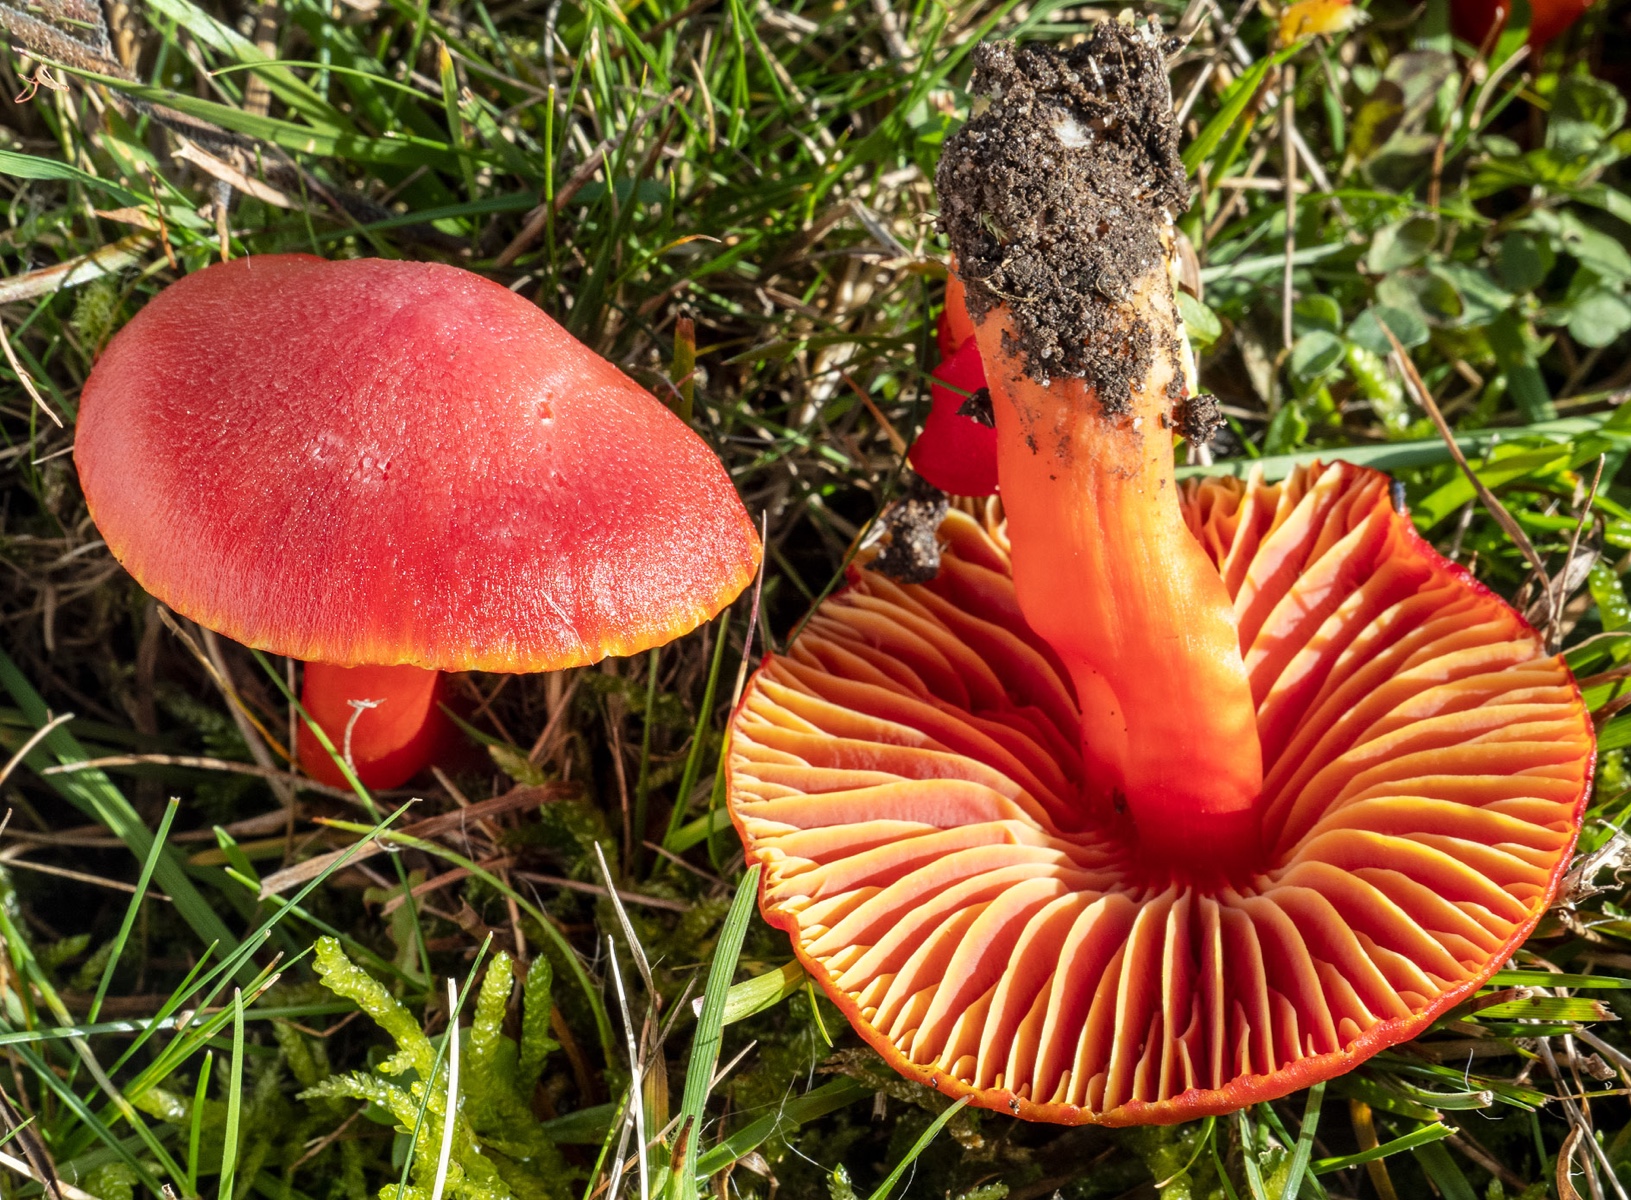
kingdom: Fungi
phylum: Basidiomycota
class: Agaricomycetes
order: Agaricales
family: Hygrophoraceae
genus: Hygrocybe
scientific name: Hygrocybe coccinea
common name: cinnober-vokshat
